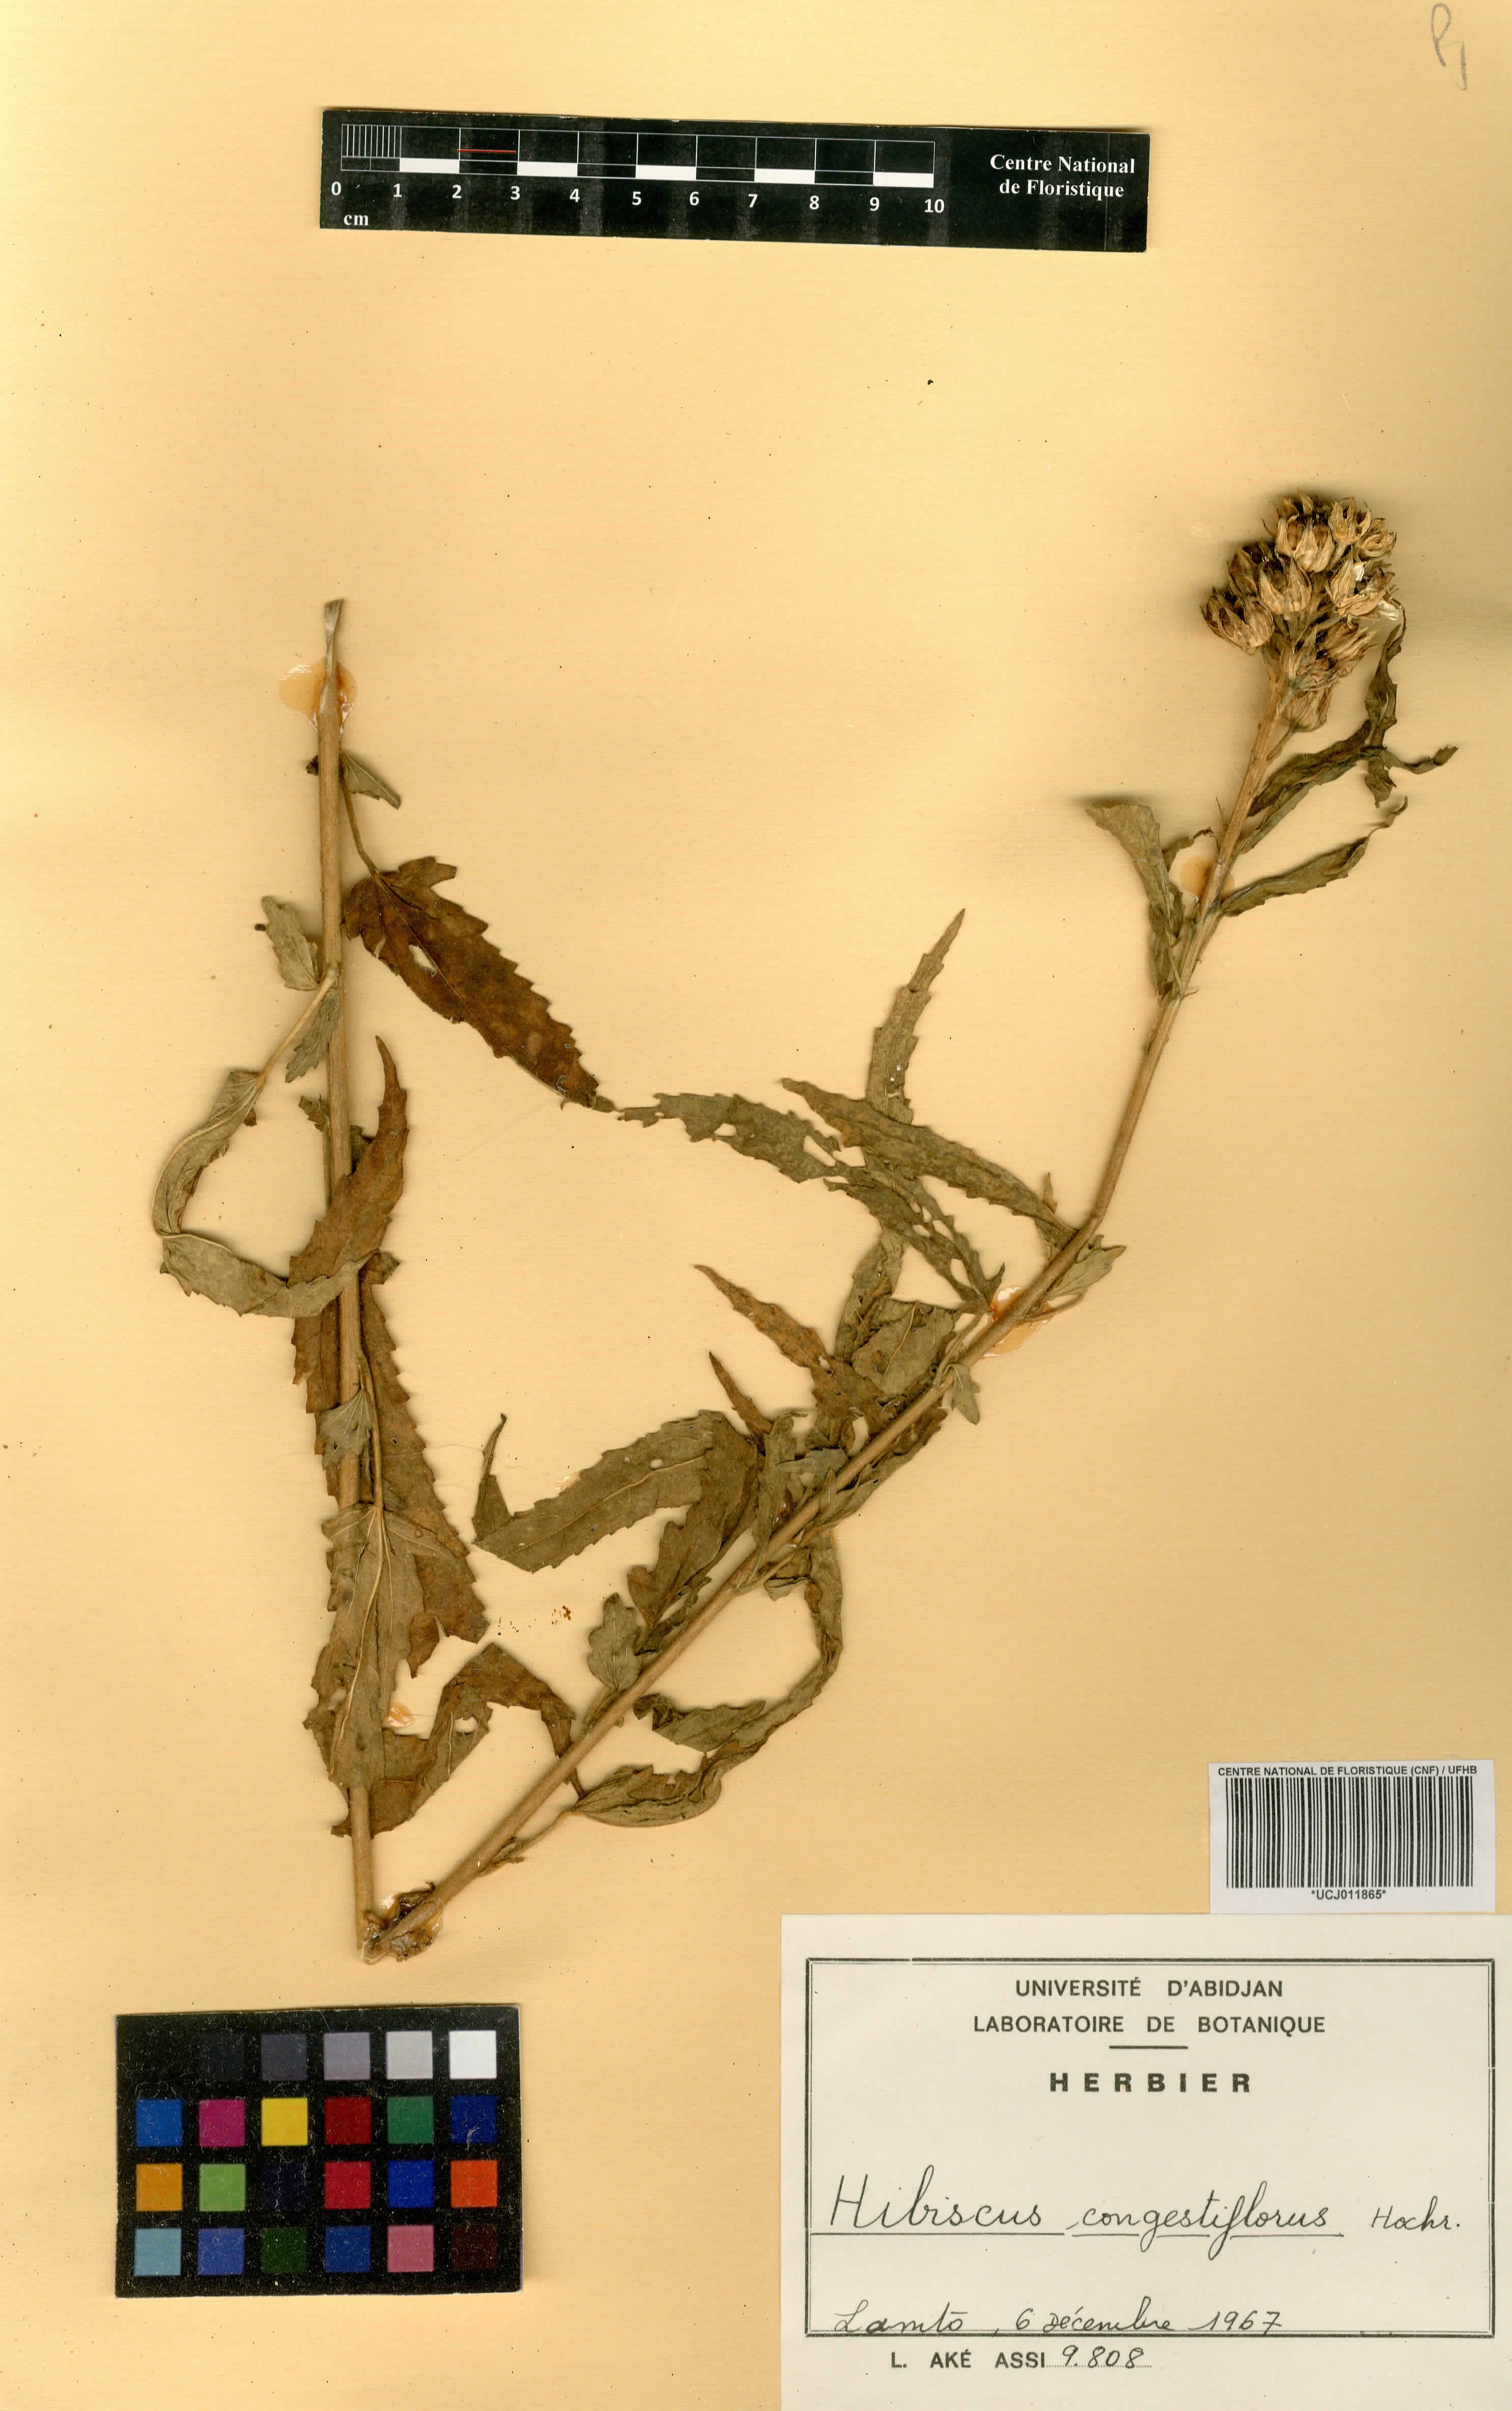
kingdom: Plantae
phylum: Tracheophyta
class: Magnoliopsida
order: Malvales
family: Malvaceae
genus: Hibiscus
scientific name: Hibiscus congestiflorus
